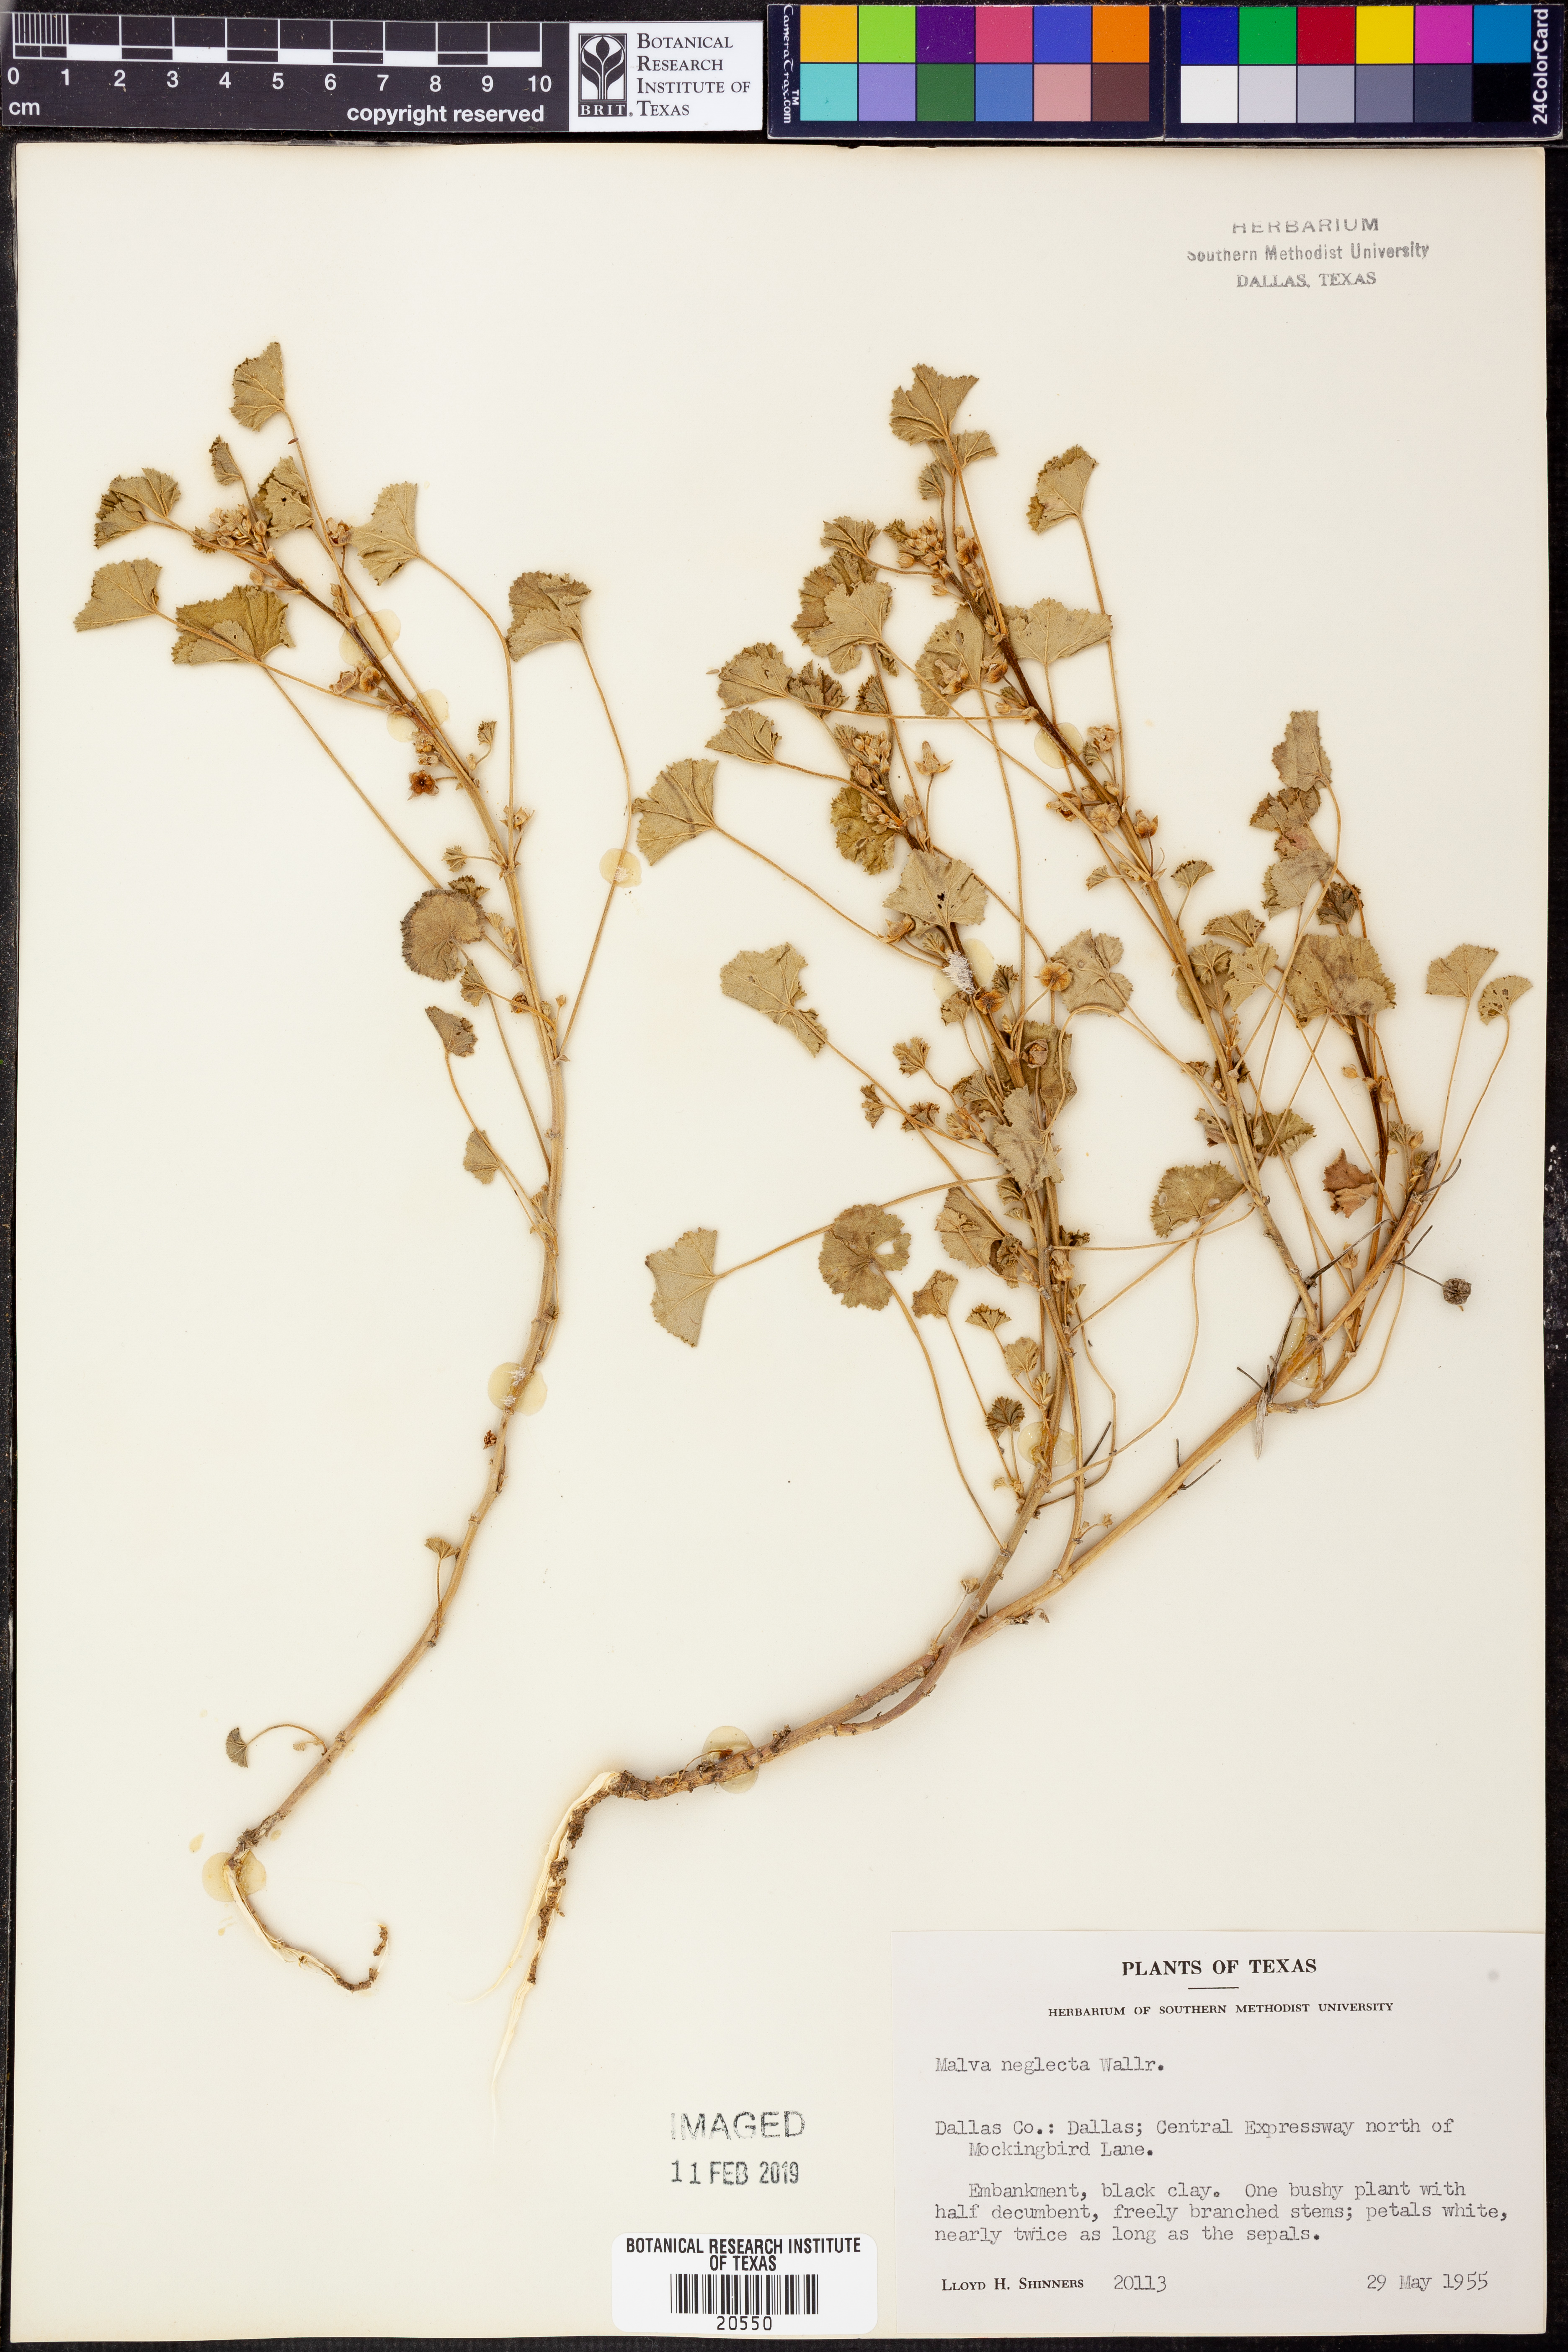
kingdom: Plantae
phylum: Tracheophyta
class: Magnoliopsida
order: Malvales
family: Malvaceae
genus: Malva
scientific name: Malva neglecta
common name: Common mallow
